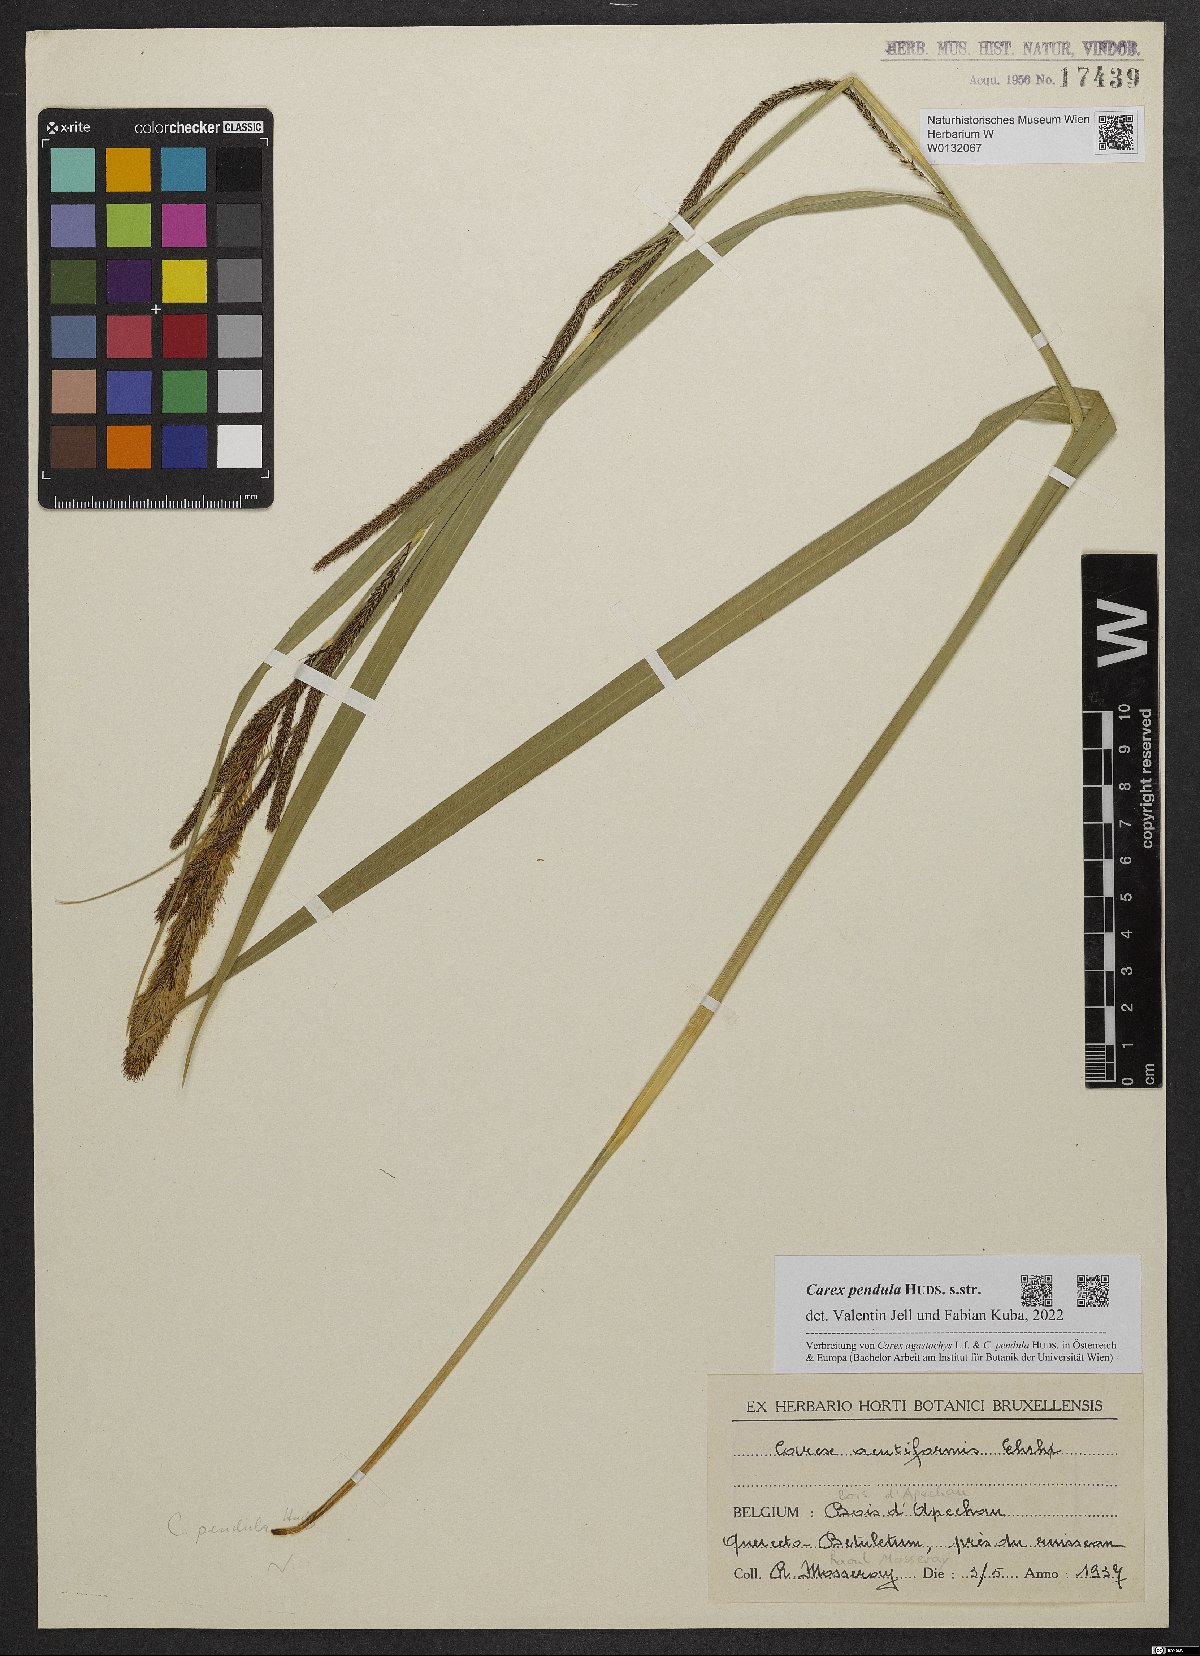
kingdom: Plantae
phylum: Tracheophyta
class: Liliopsida
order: Poales
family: Cyperaceae
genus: Carex
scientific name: Carex pendula
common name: Pendulous sedge
